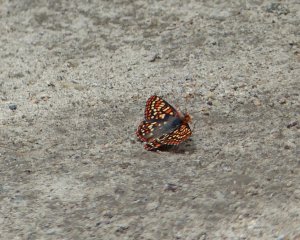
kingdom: Animalia
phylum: Arthropoda
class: Insecta
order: Lepidoptera
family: Nymphalidae
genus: Occidryas
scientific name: Occidryas anicia
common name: Anicia Checkerspot
